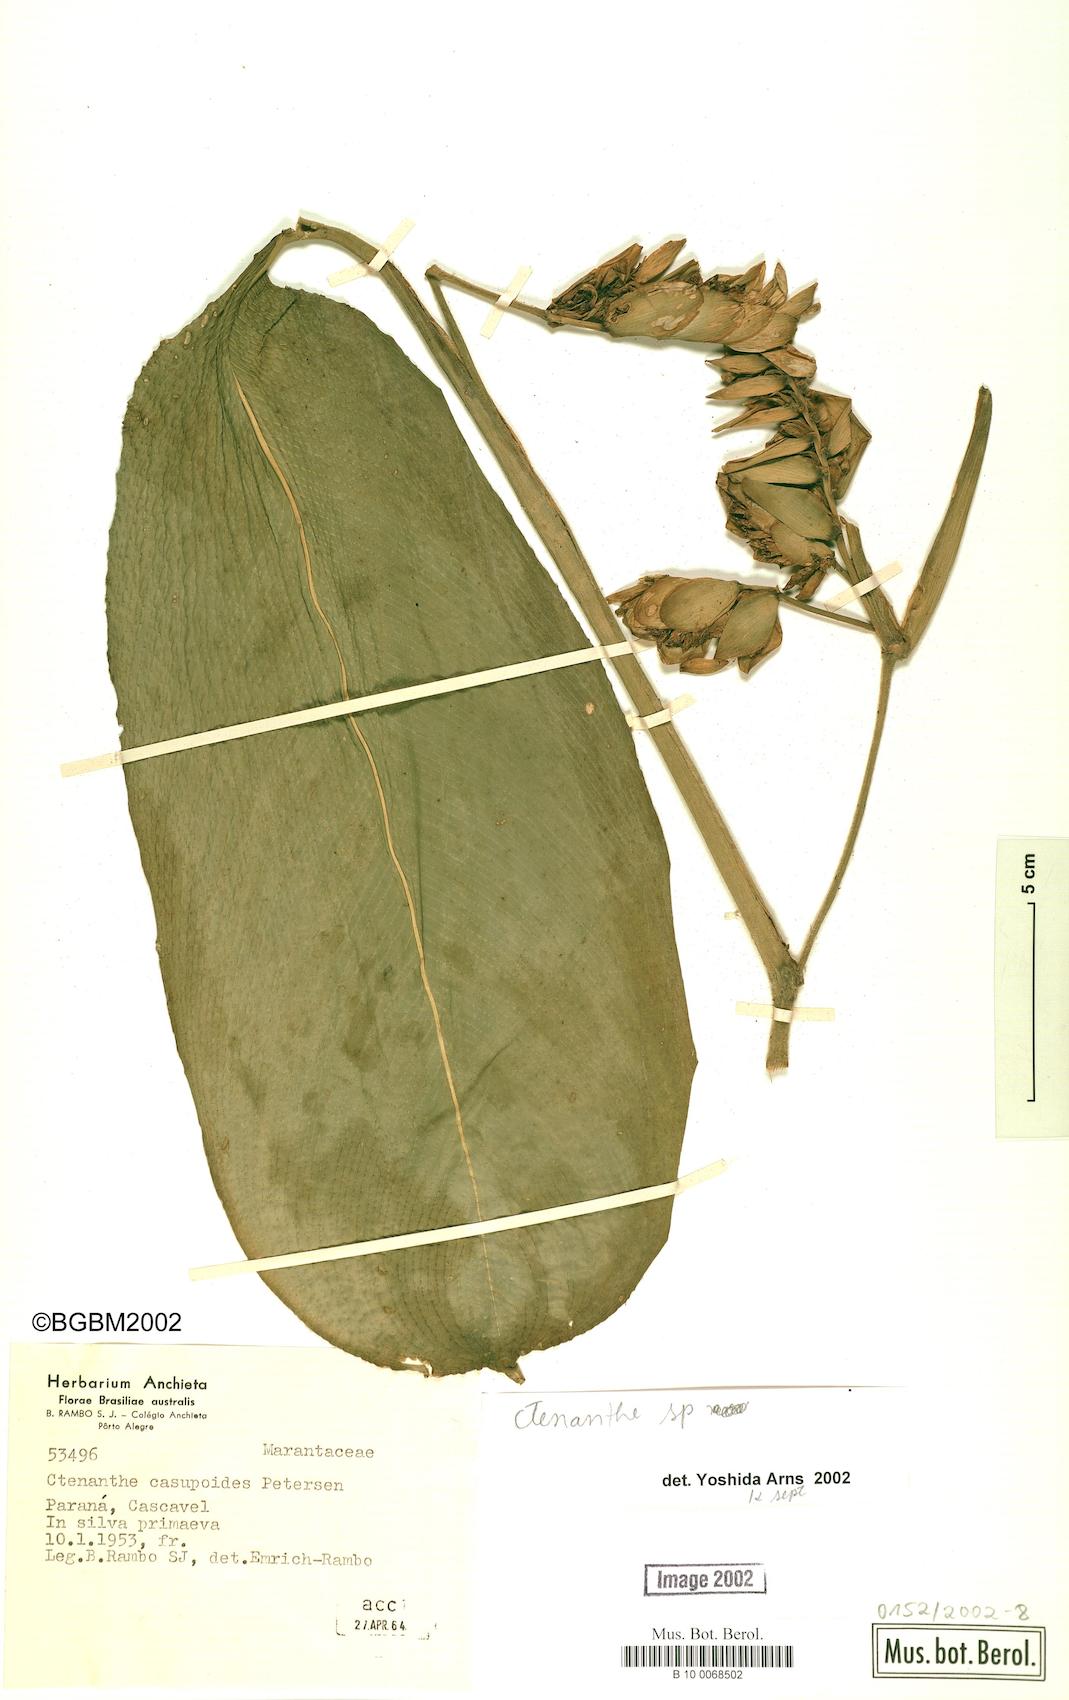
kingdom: Plantae
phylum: Tracheophyta
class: Liliopsida
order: Zingiberales
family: Marantaceae
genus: Ctenanthe
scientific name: Ctenanthe
